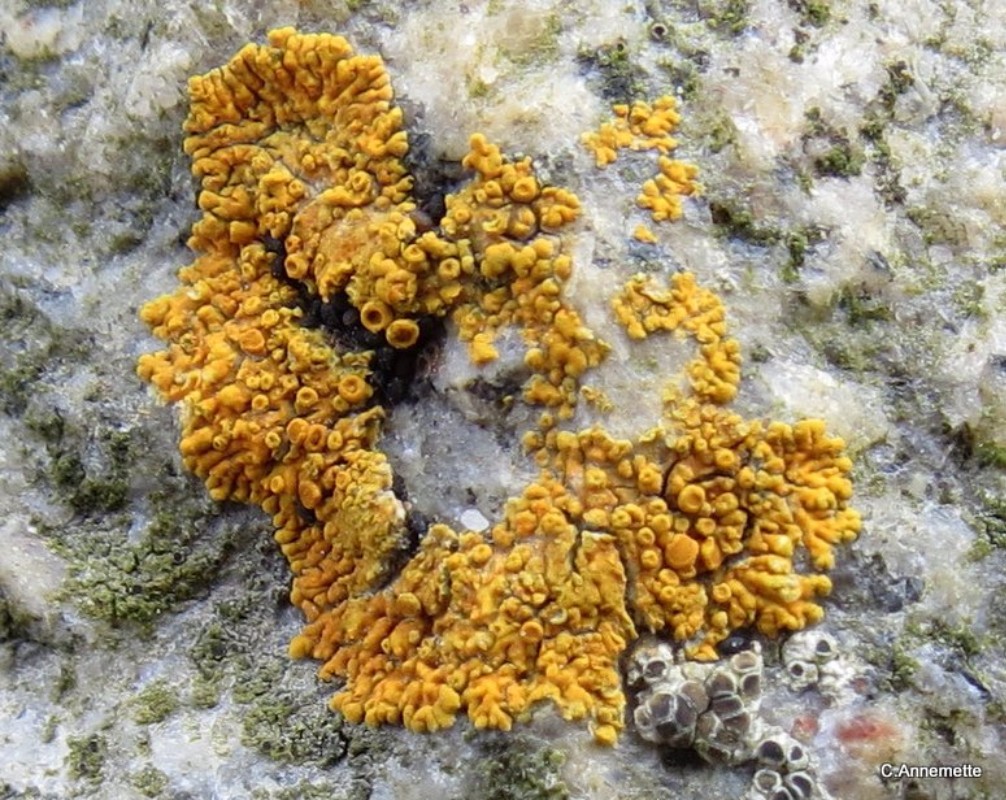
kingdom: Fungi
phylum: Ascomycota
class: Lecanoromycetes
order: Teloschistales
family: Teloschistaceae
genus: Athallia
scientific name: Athallia scopularis
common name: klippe-orangelav
